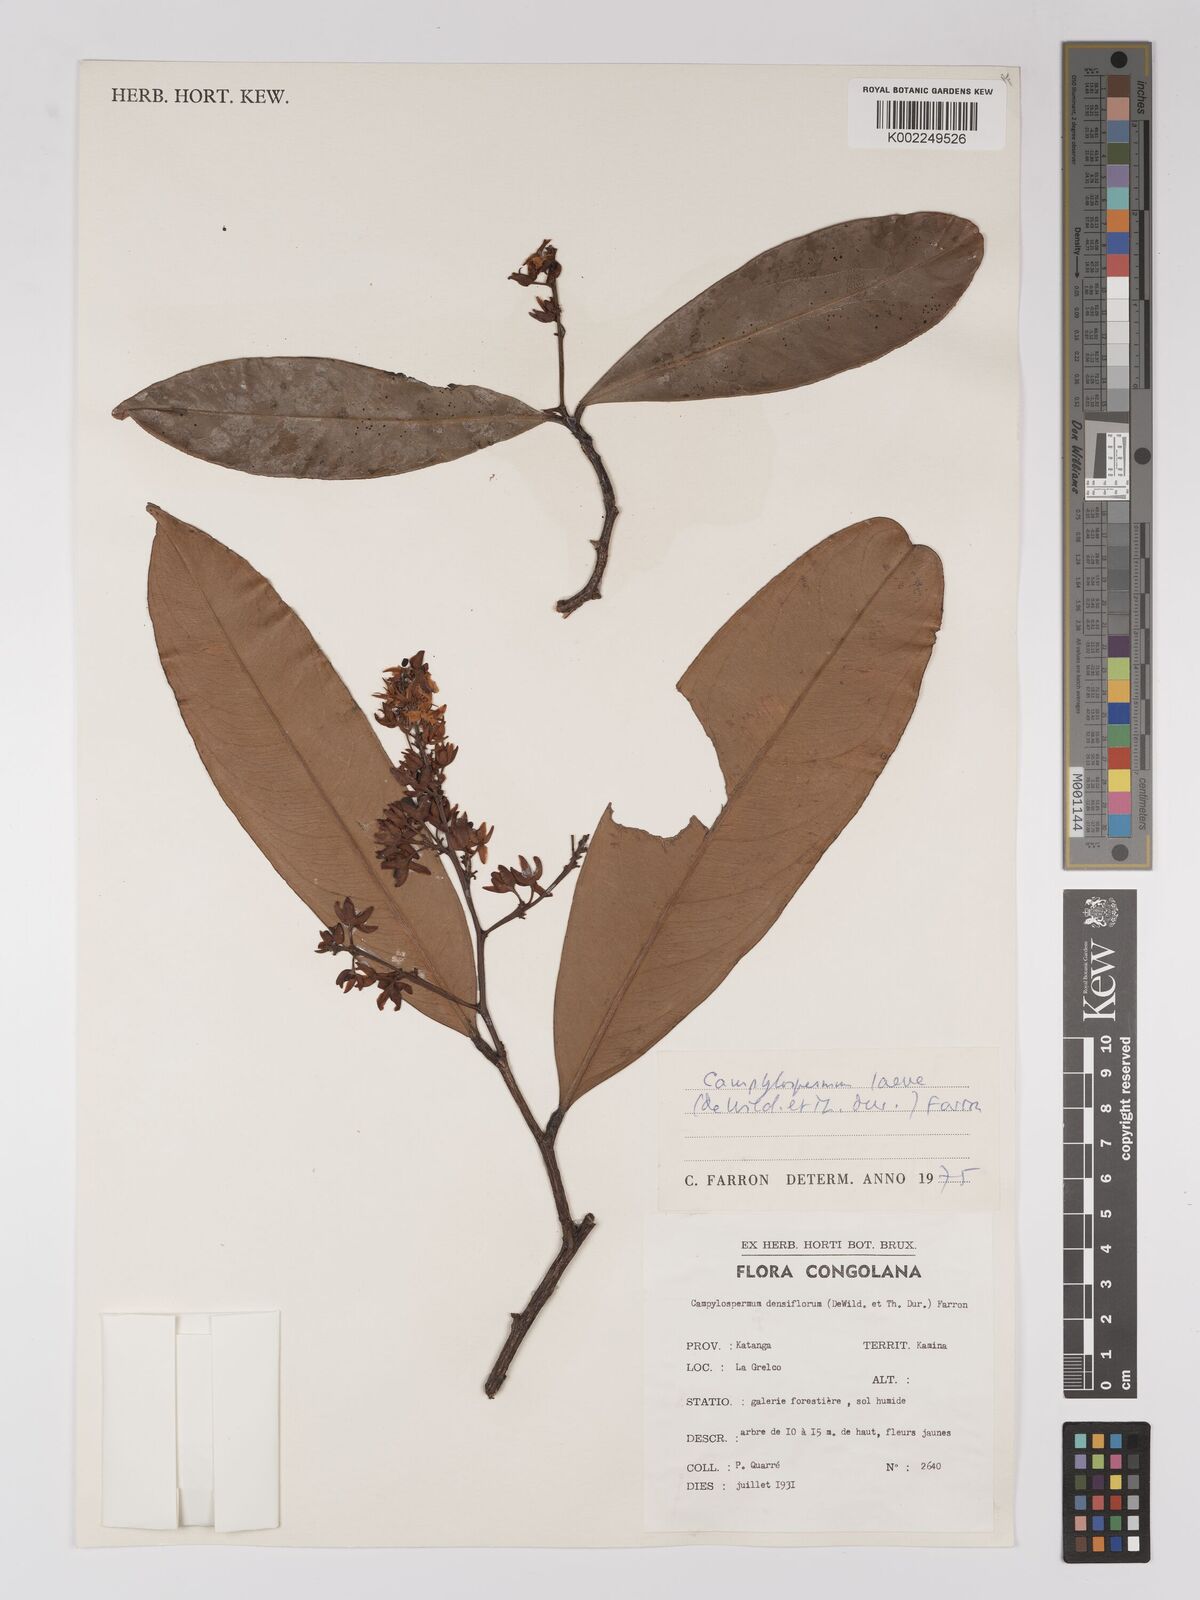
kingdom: Plantae
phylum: Tracheophyta
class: Magnoliopsida
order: Malpighiales
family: Ochnaceae
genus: Campylospermum
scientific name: Campylospermum laeve
